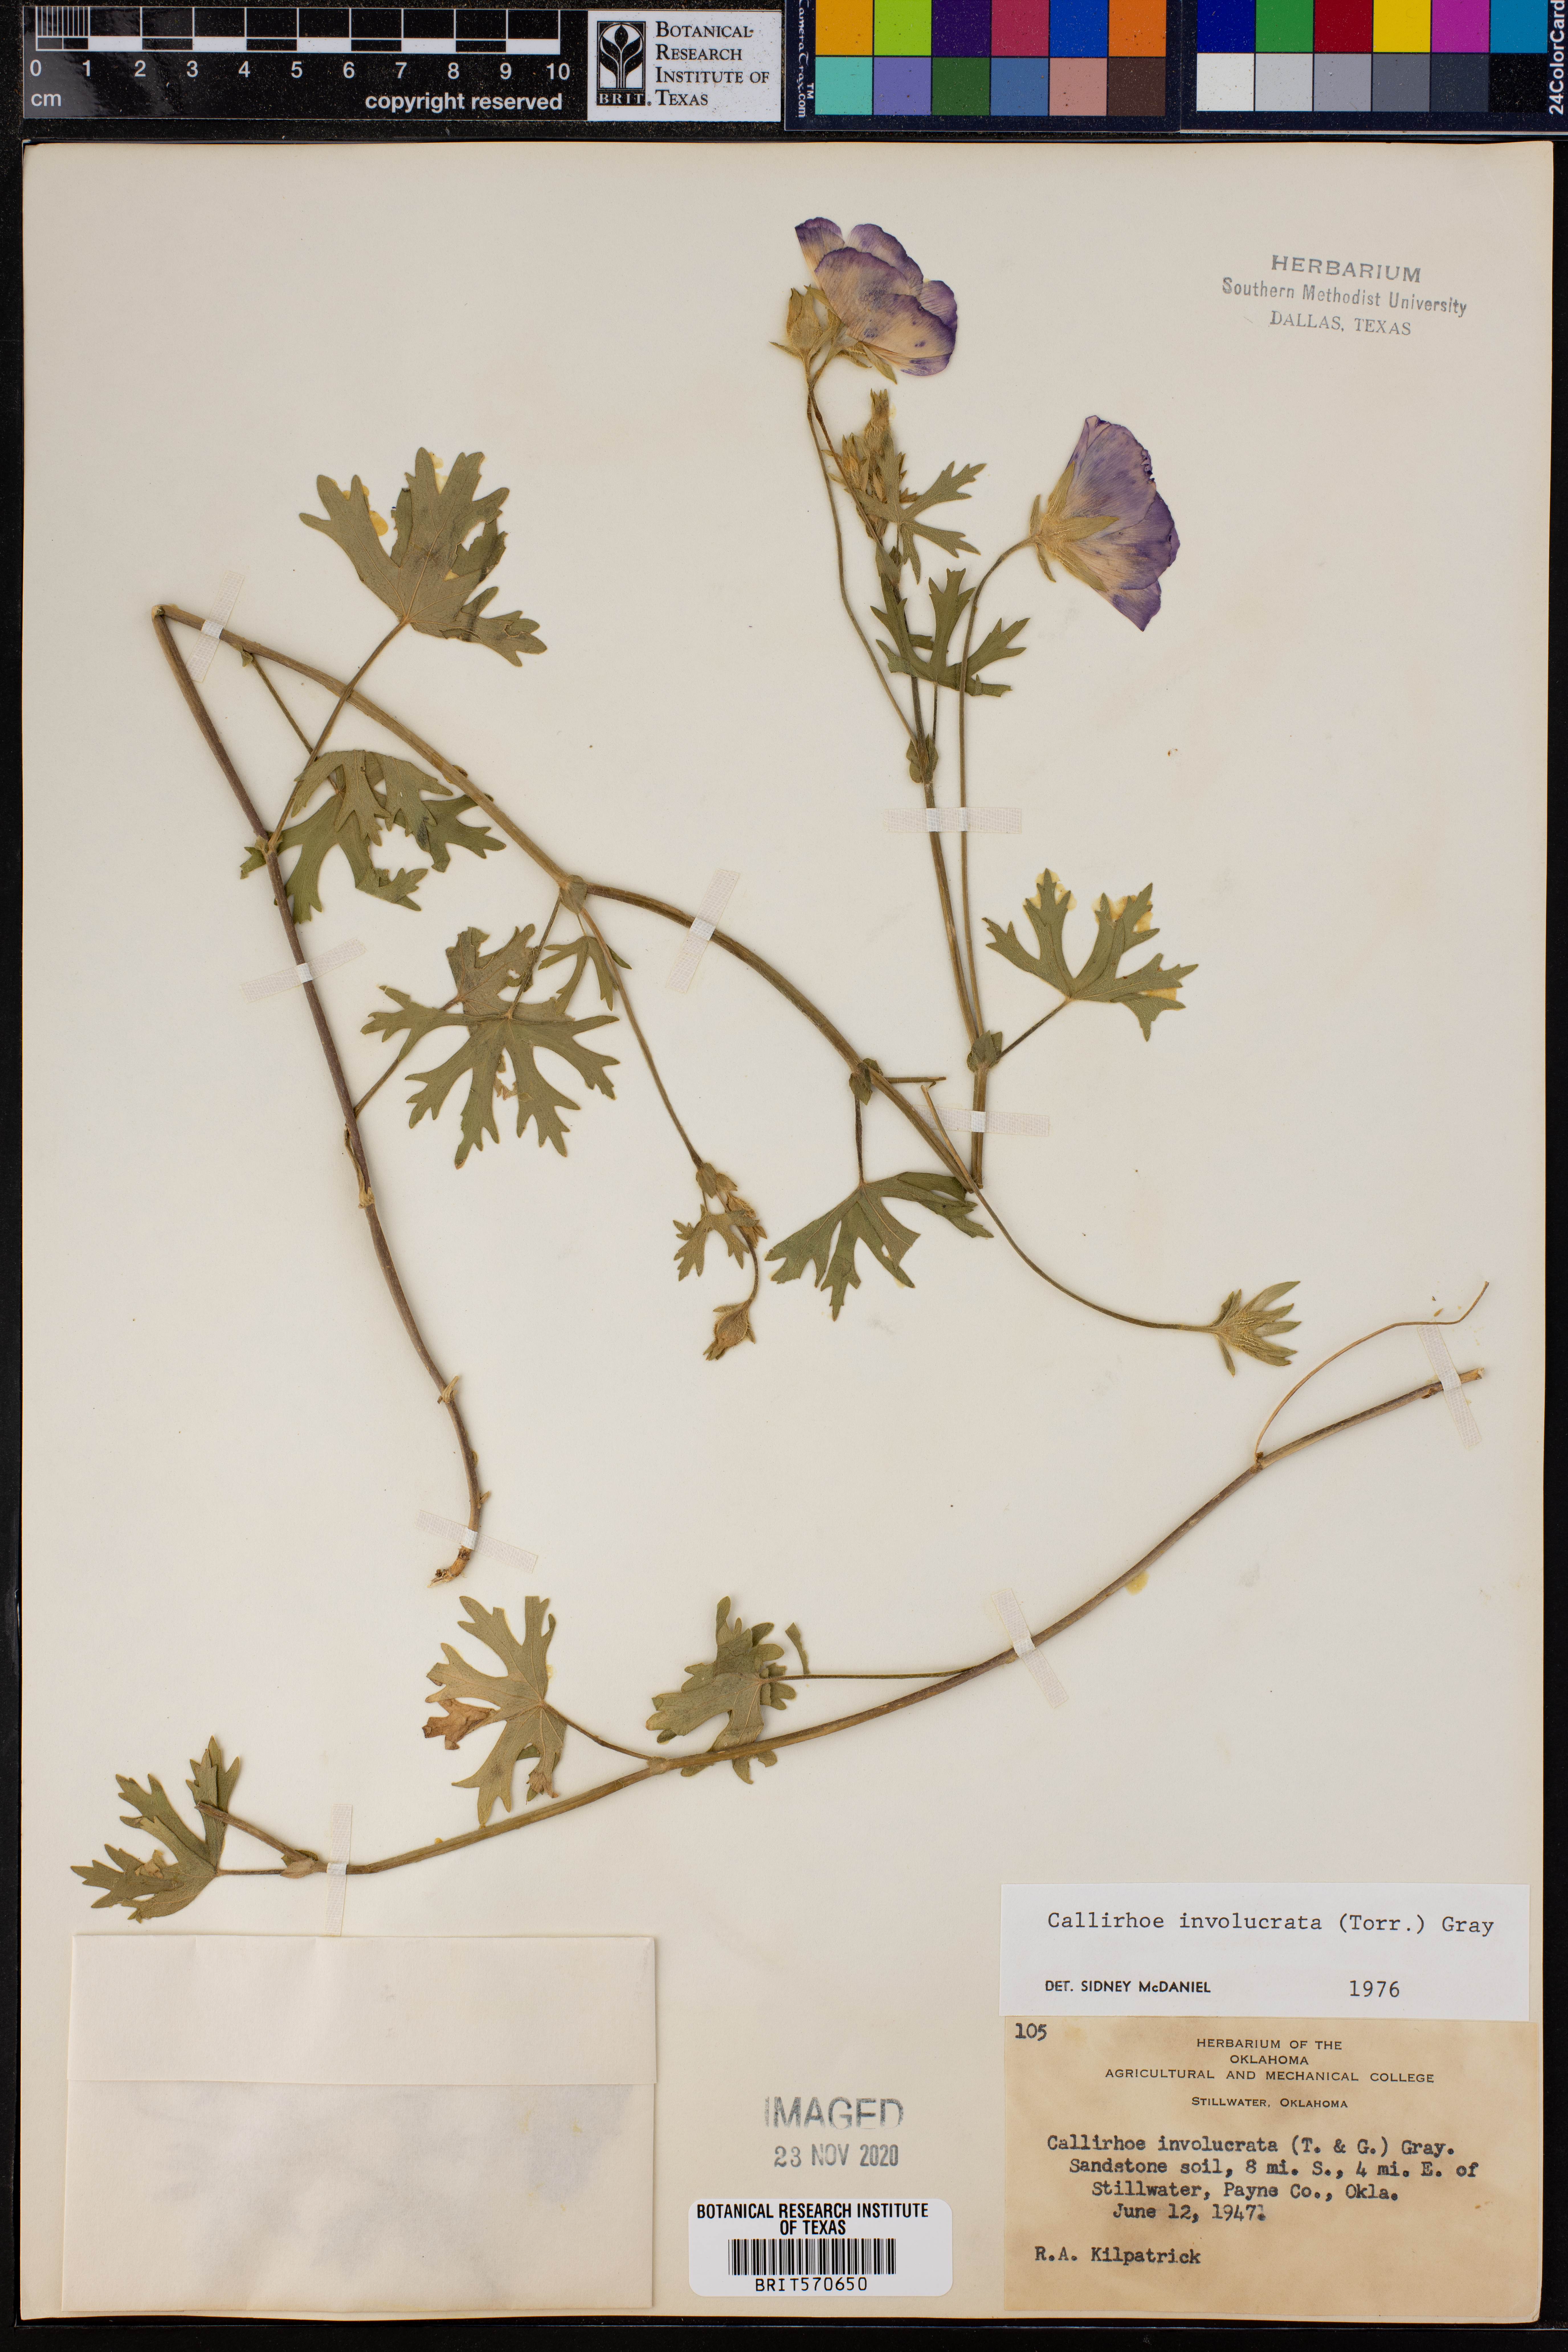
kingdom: Plantae
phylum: Tracheophyta
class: Magnoliopsida
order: Malvales
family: Malvaceae
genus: Callirhoe
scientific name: Callirhoe involucrata
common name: Purple poppy-mallow
